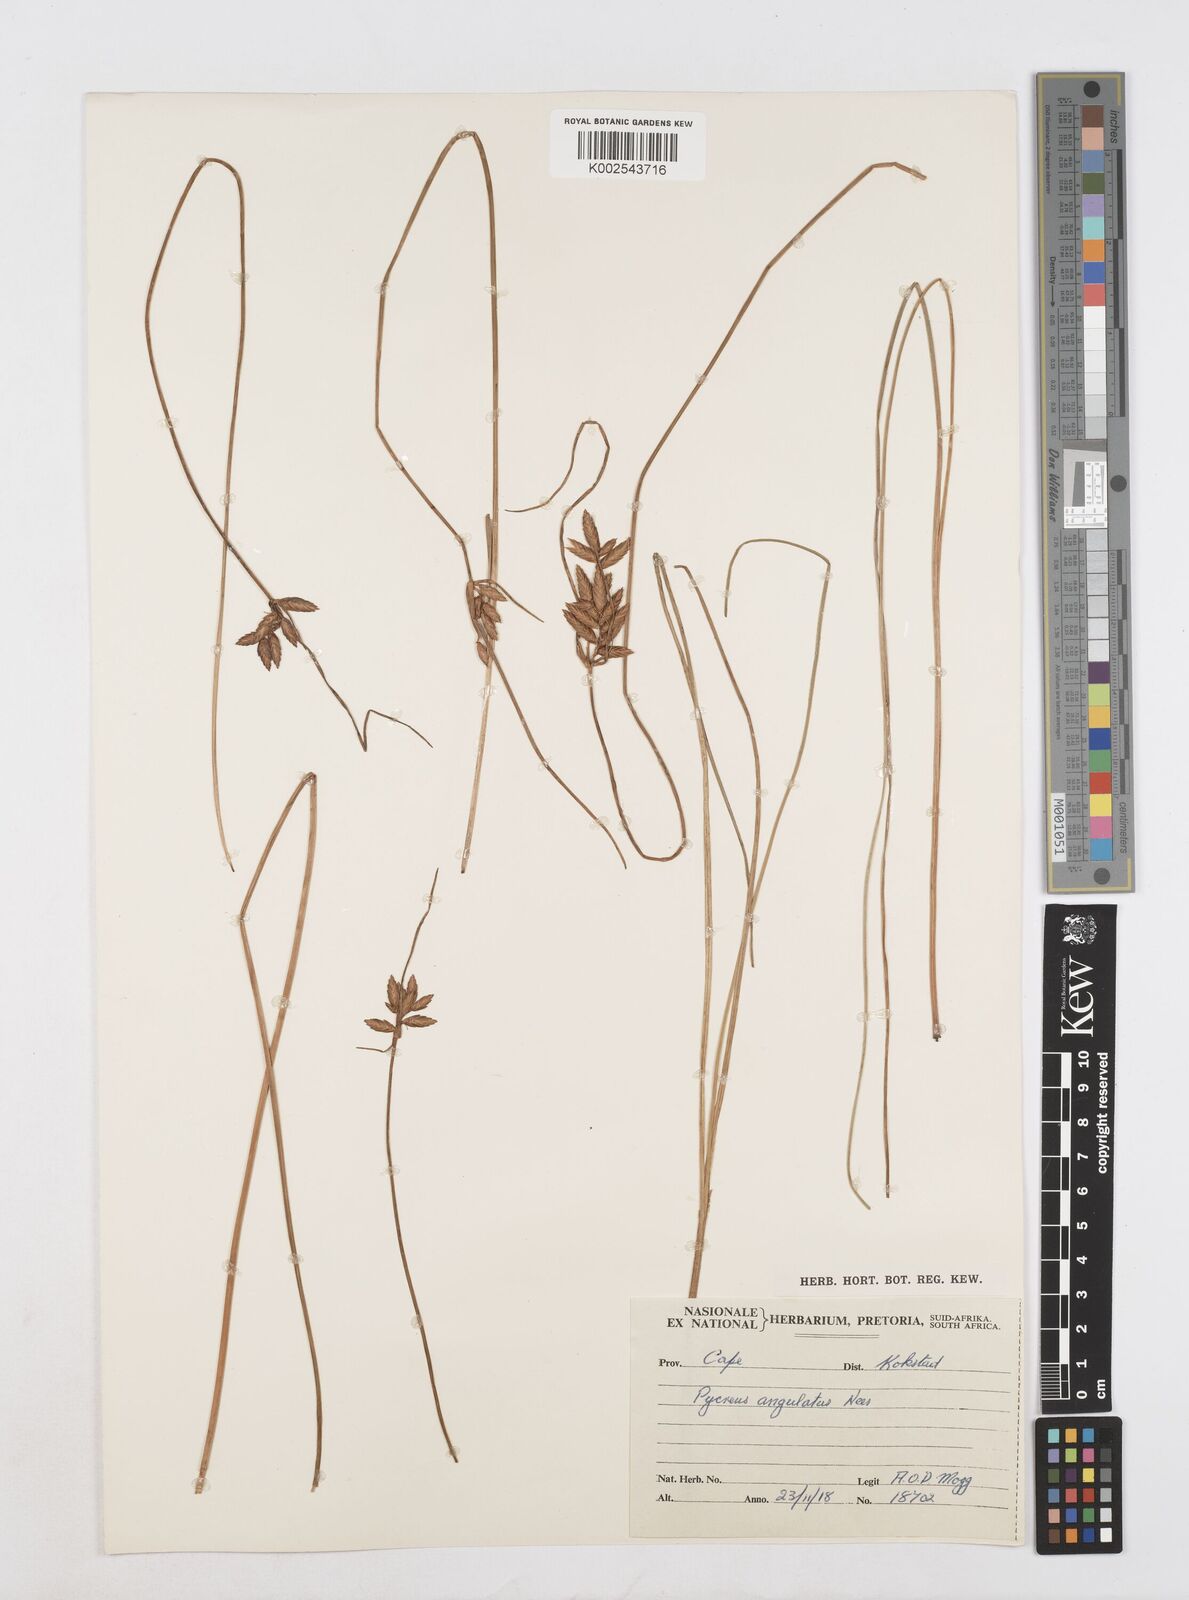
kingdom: Plantae
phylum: Tracheophyta
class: Liliopsida
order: Poales
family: Cyperaceae
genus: Cyperus
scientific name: Cyperus unioloides
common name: Uniola flatsedge
